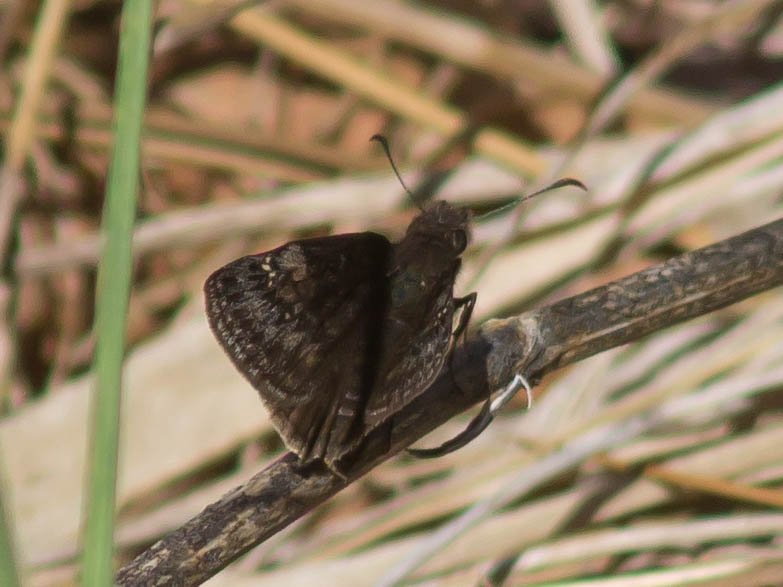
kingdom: Animalia
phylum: Arthropoda
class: Insecta
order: Lepidoptera
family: Hesperiidae
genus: Gesta
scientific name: Gesta
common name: Wild Indigo Duskywing
